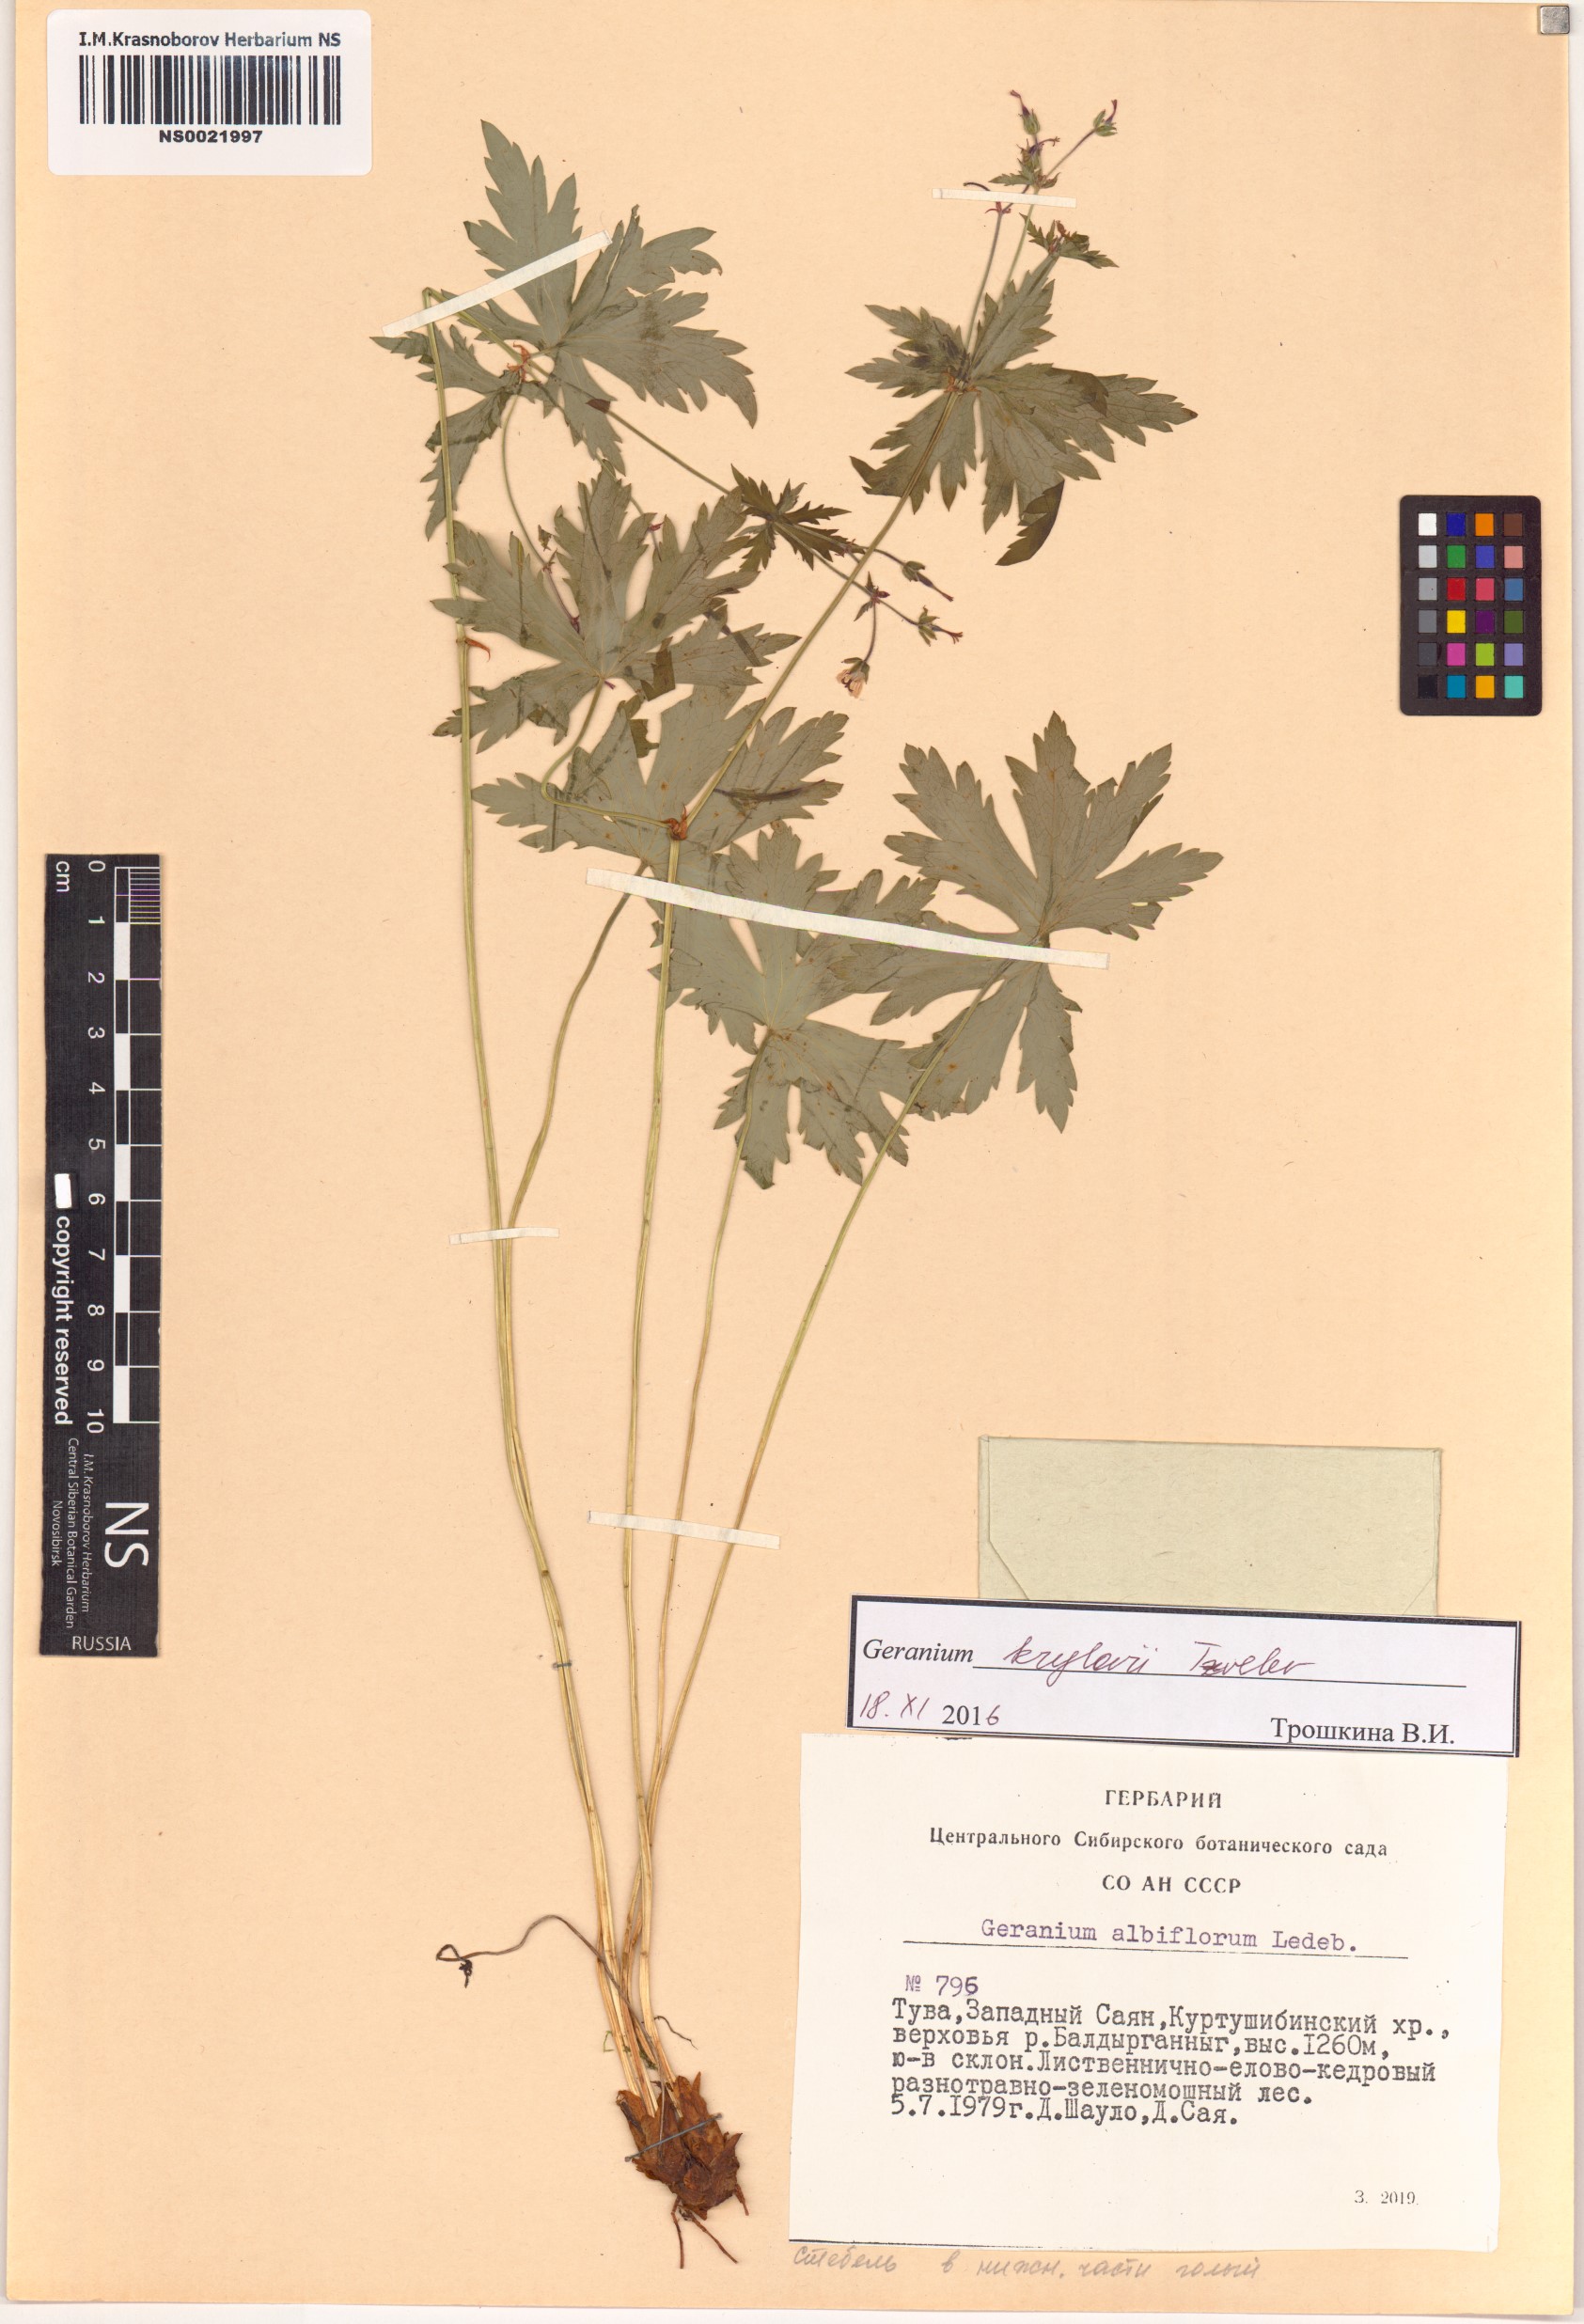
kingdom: Plantae
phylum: Tracheophyta
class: Magnoliopsida
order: Geraniales
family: Geraniaceae
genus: Geranium
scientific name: Geranium sylvaticum
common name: Wood crane's-bill
